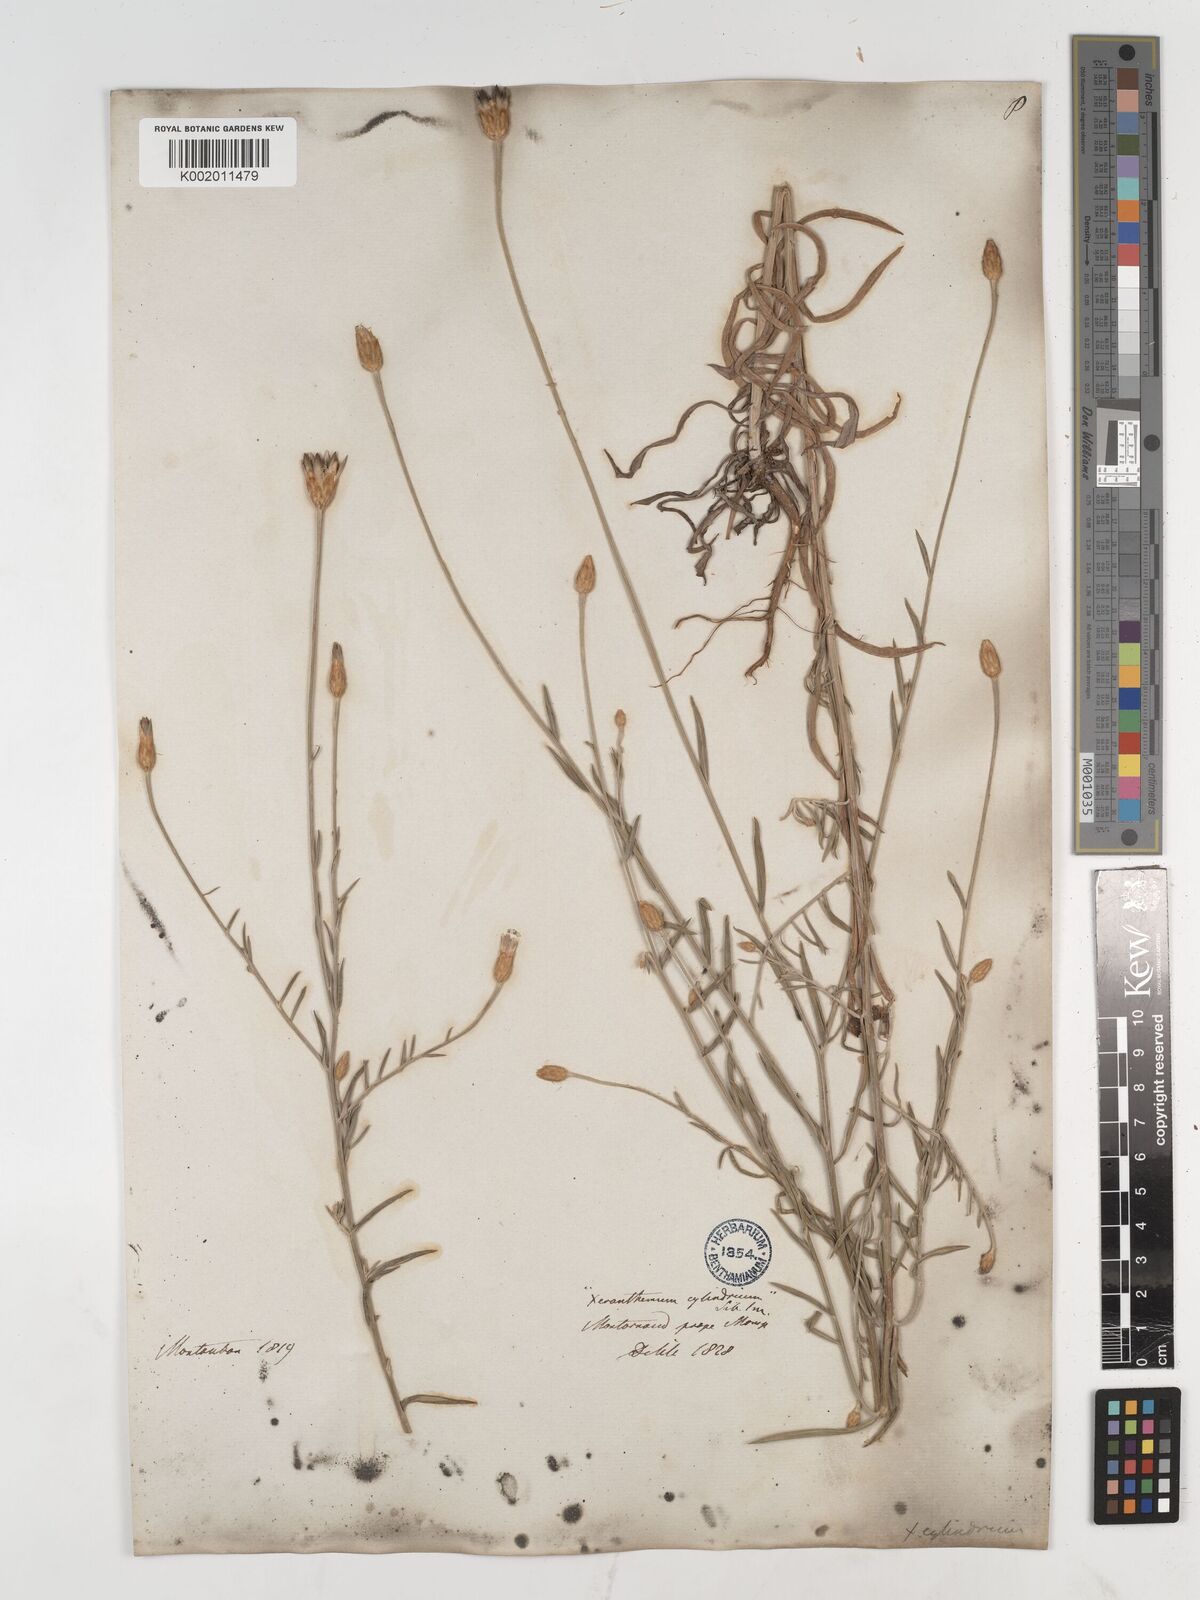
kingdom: Plantae
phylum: Tracheophyta
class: Magnoliopsida
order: Asterales
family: Asteraceae
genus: Xeranthemum
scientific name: Xeranthemum cylindraceum
